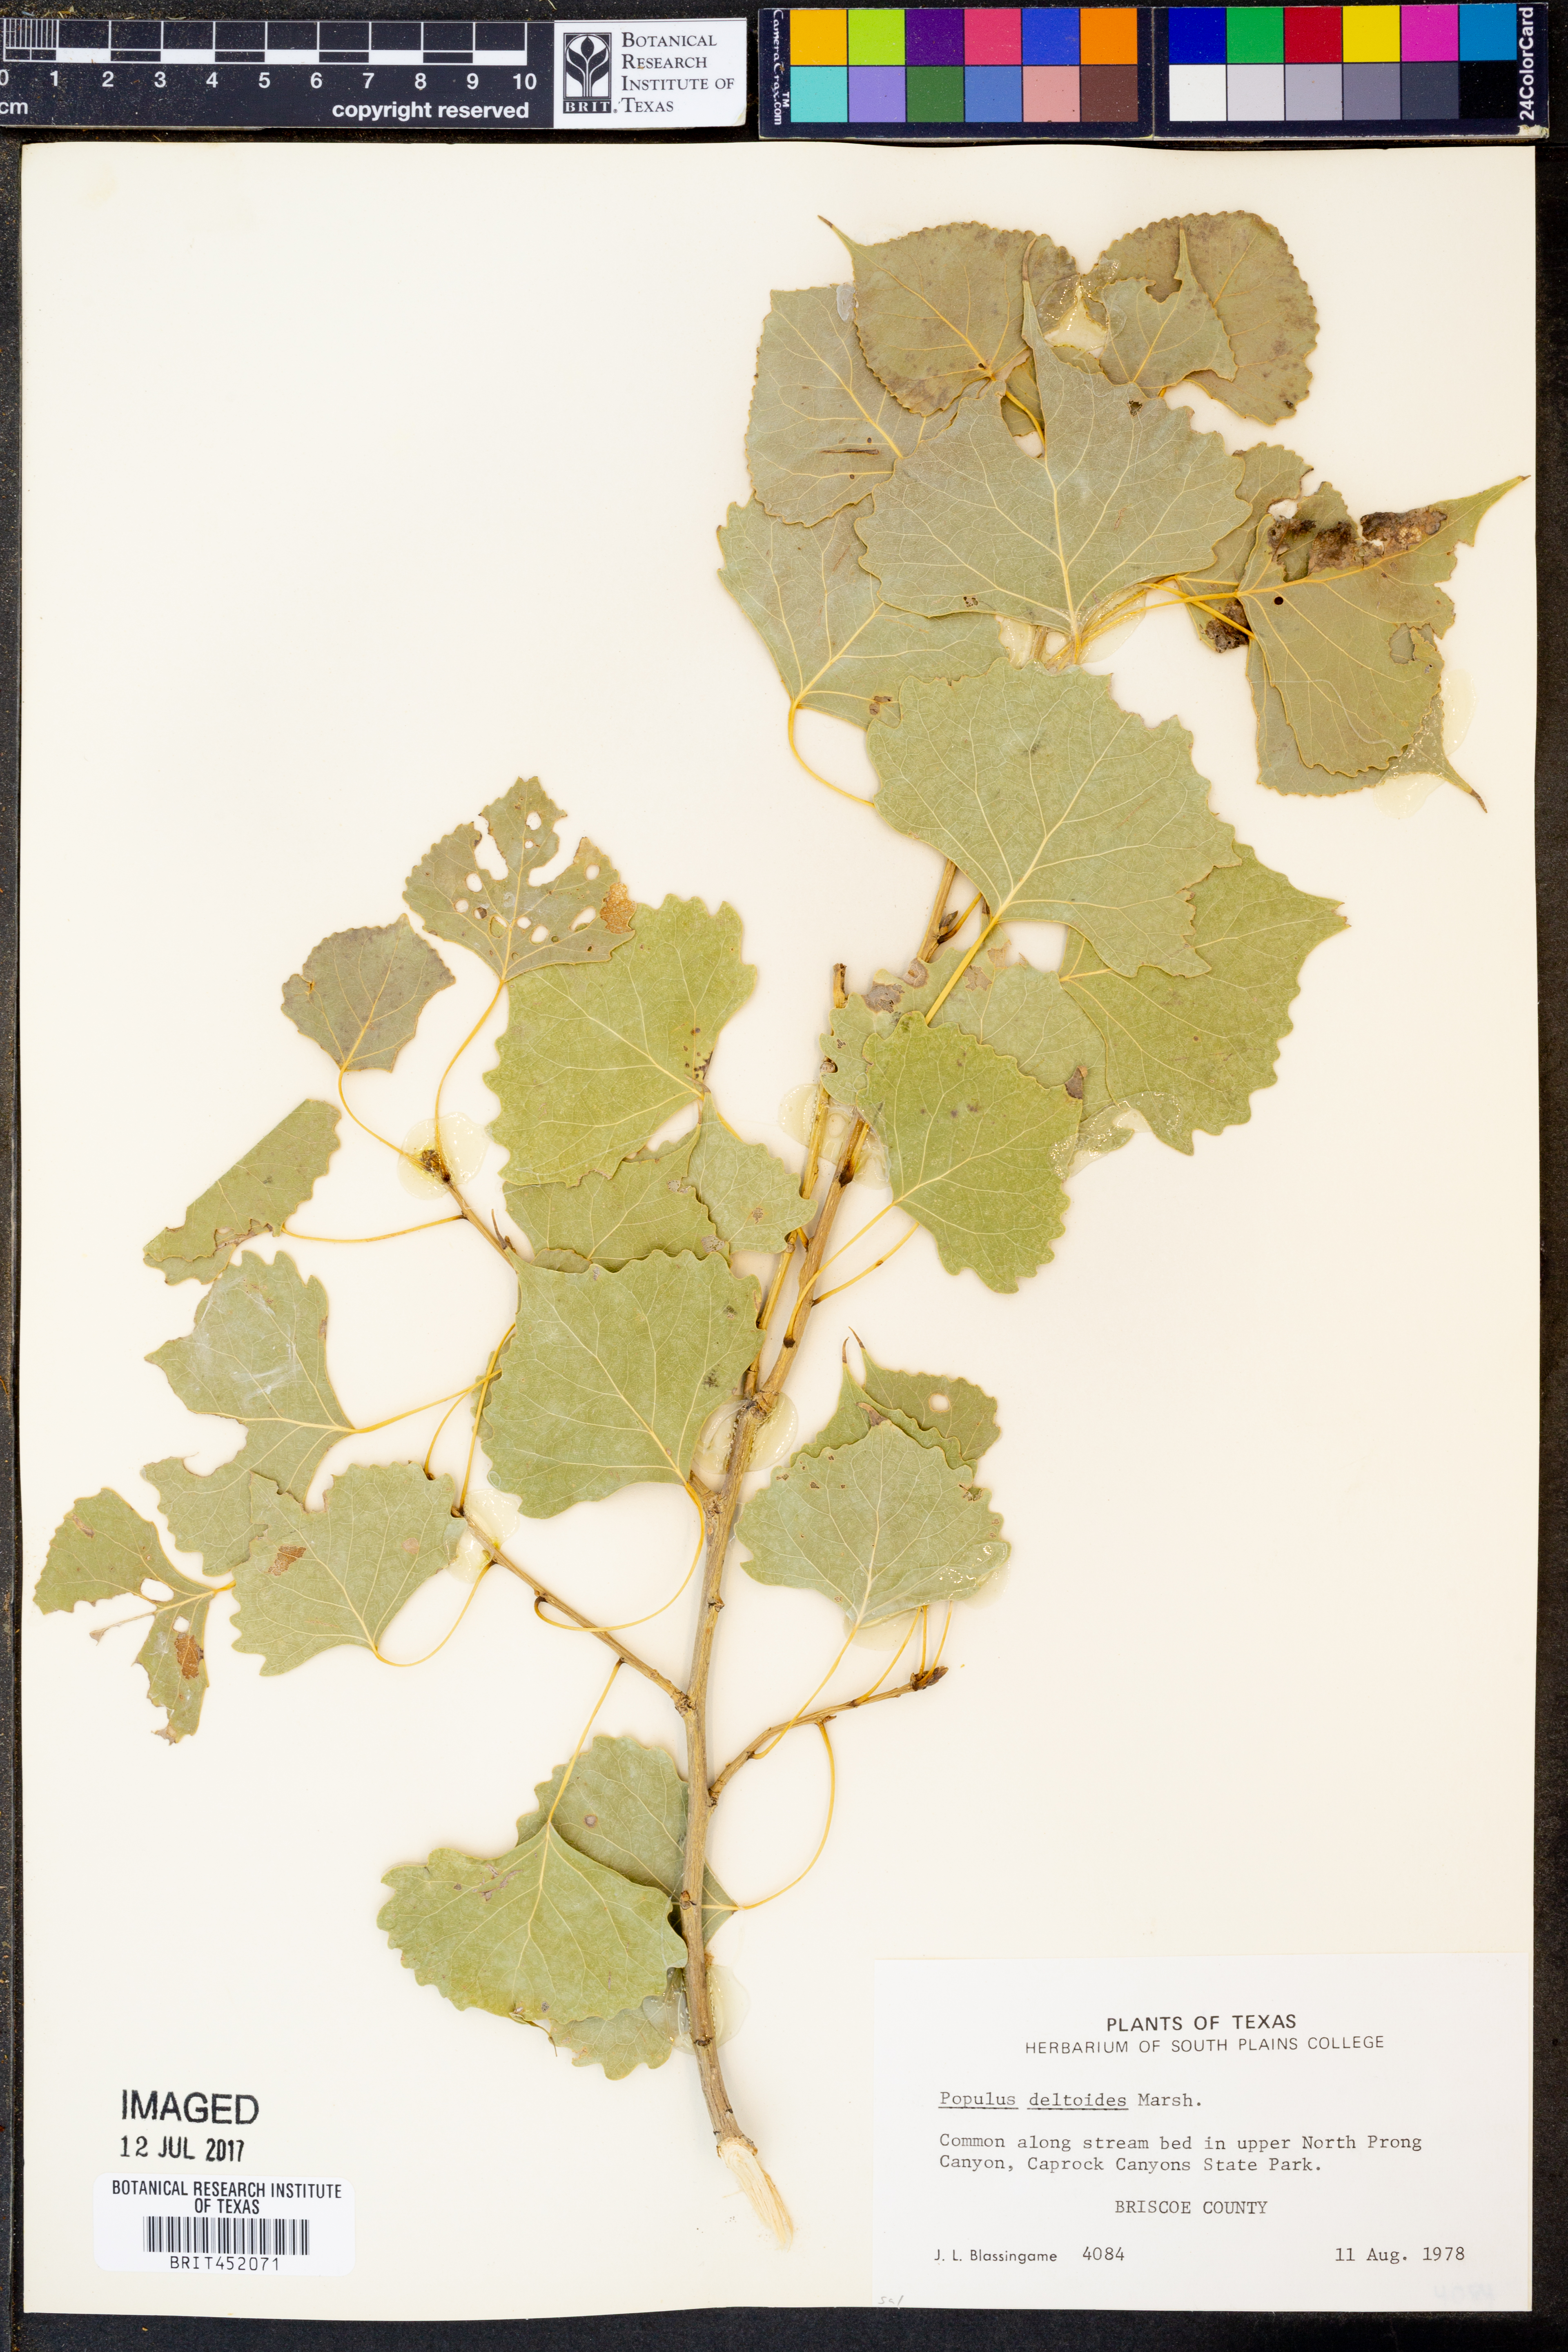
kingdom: Plantae
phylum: Tracheophyta
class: Magnoliopsida
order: Malpighiales
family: Salicaceae
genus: Populus
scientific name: Populus deltoides
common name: Eastern cottonwood
